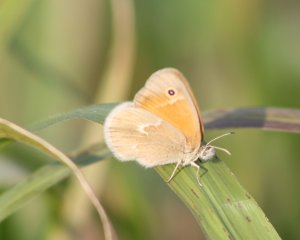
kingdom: Animalia
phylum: Arthropoda
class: Insecta
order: Lepidoptera
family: Nymphalidae
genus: Coenonympha
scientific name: Coenonympha tullia
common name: Large Heath
